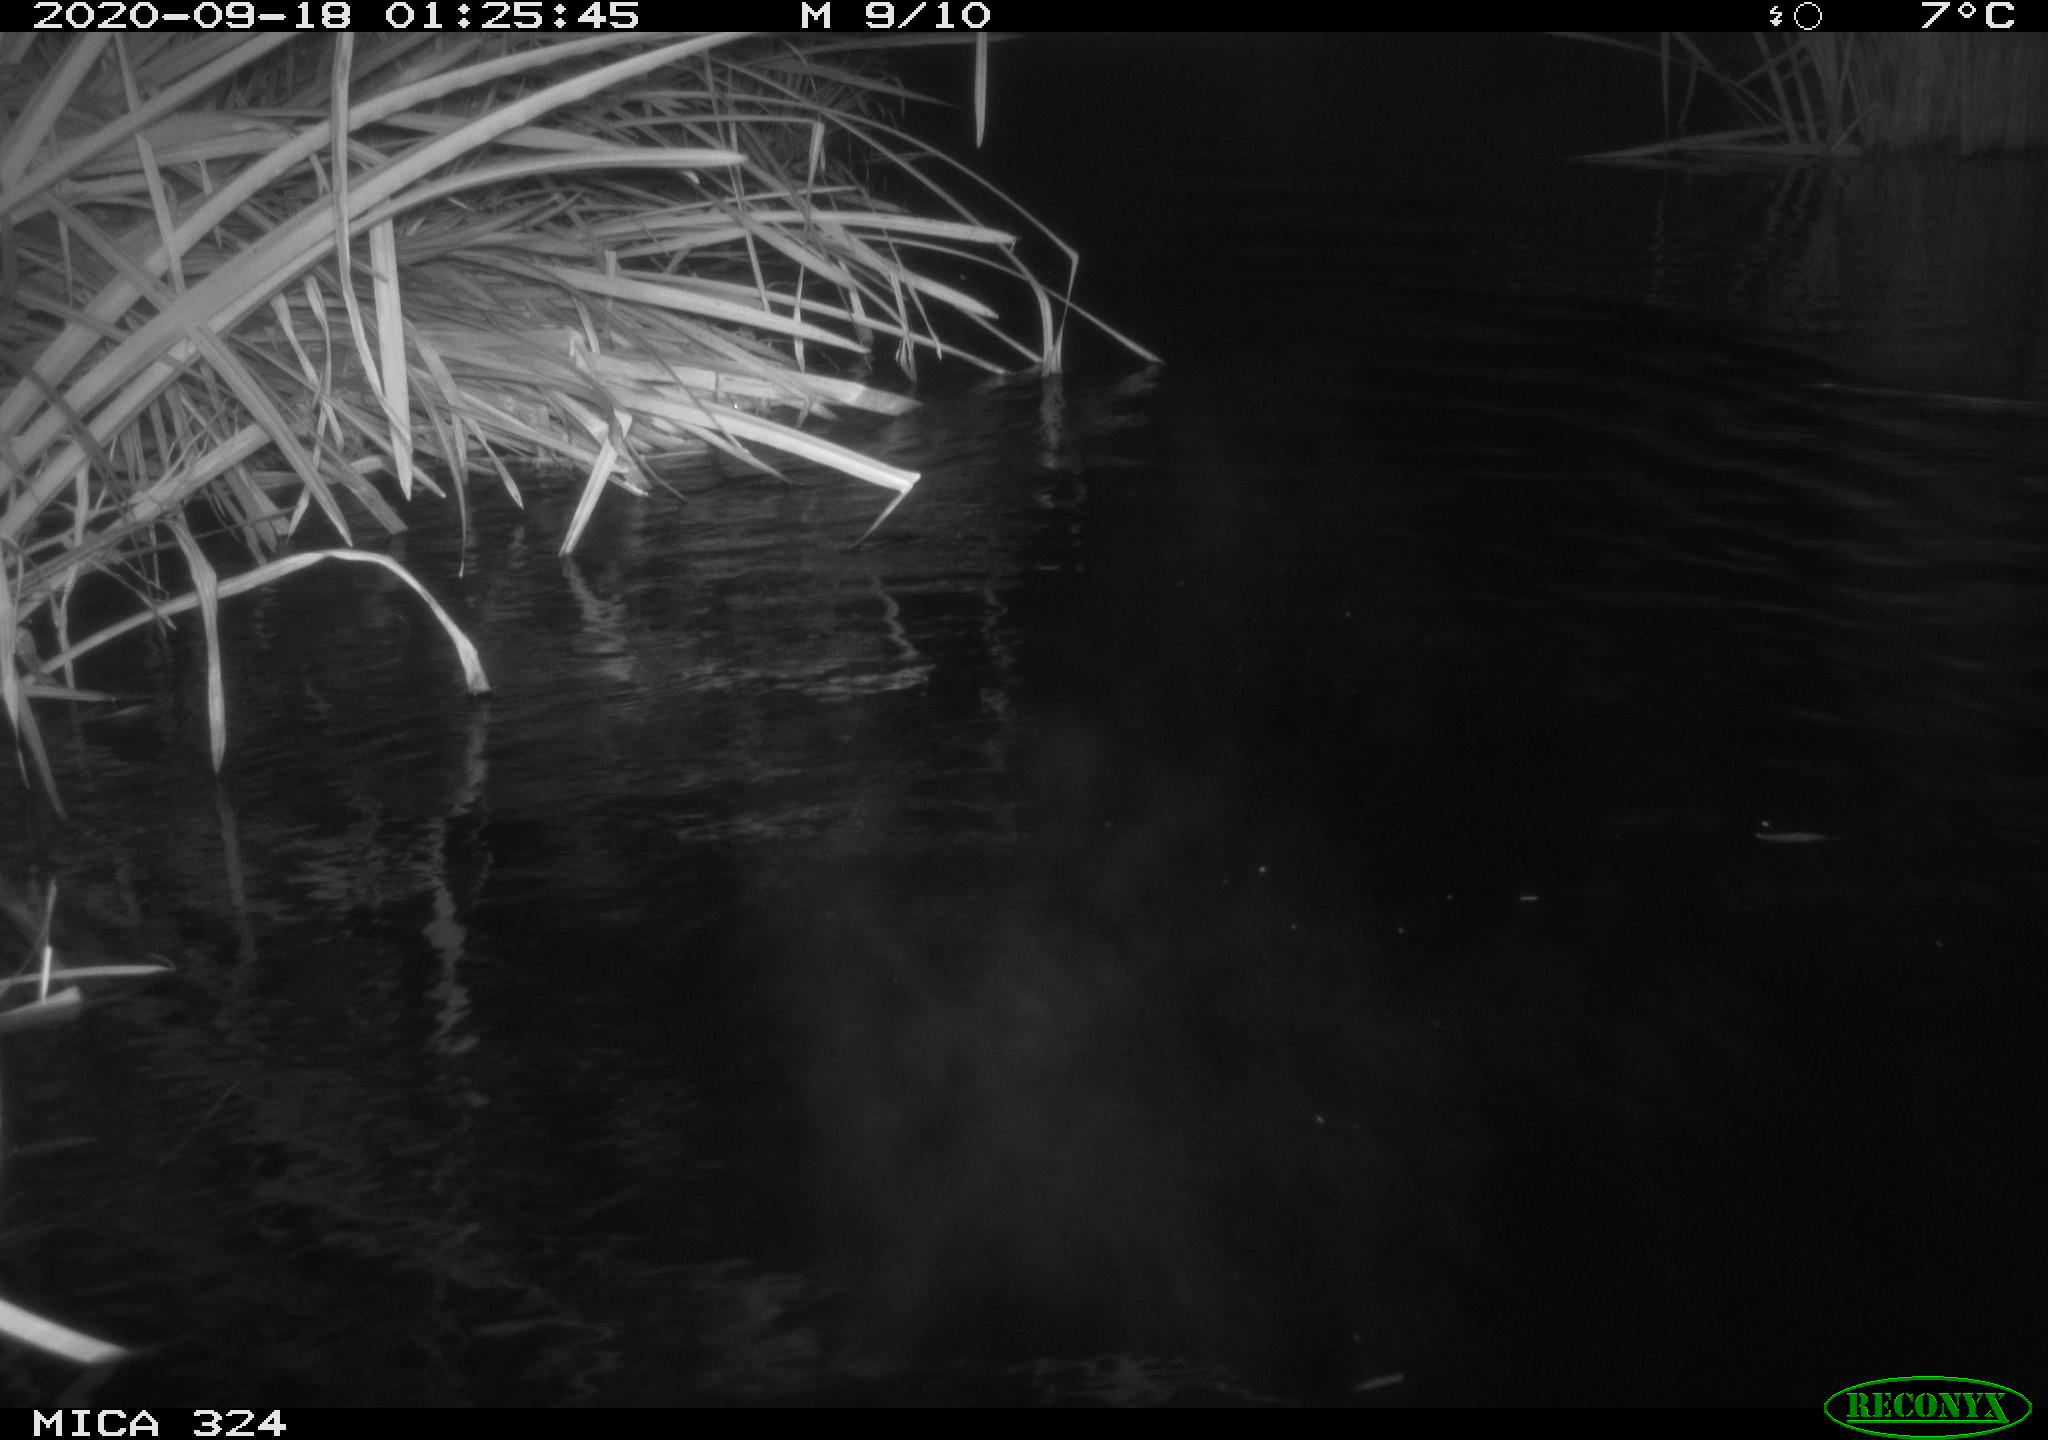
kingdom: Animalia
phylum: Chordata
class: Mammalia
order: Rodentia
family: Myocastoridae
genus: Myocastor
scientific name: Myocastor coypus
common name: Coypu
